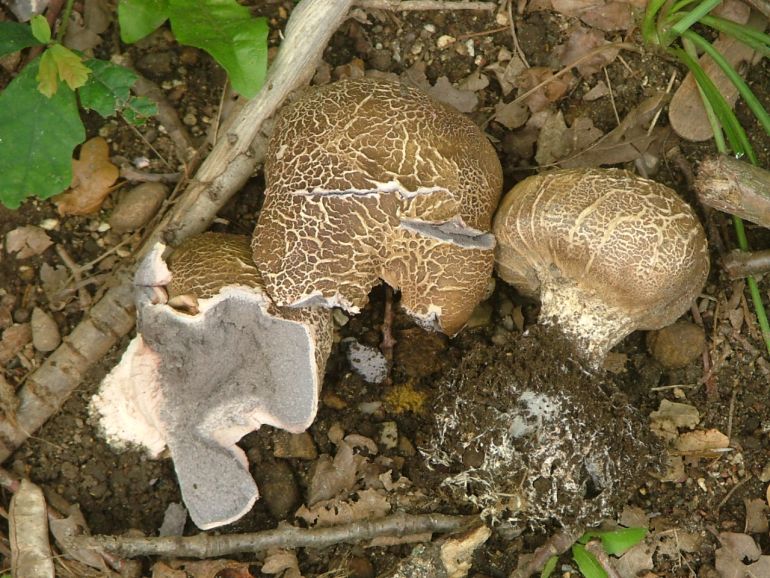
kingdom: Fungi
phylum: Basidiomycota
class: Agaricomycetes
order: Boletales
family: Sclerodermataceae
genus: Scleroderma
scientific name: Scleroderma verrucosum
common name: stilket bruskbold
